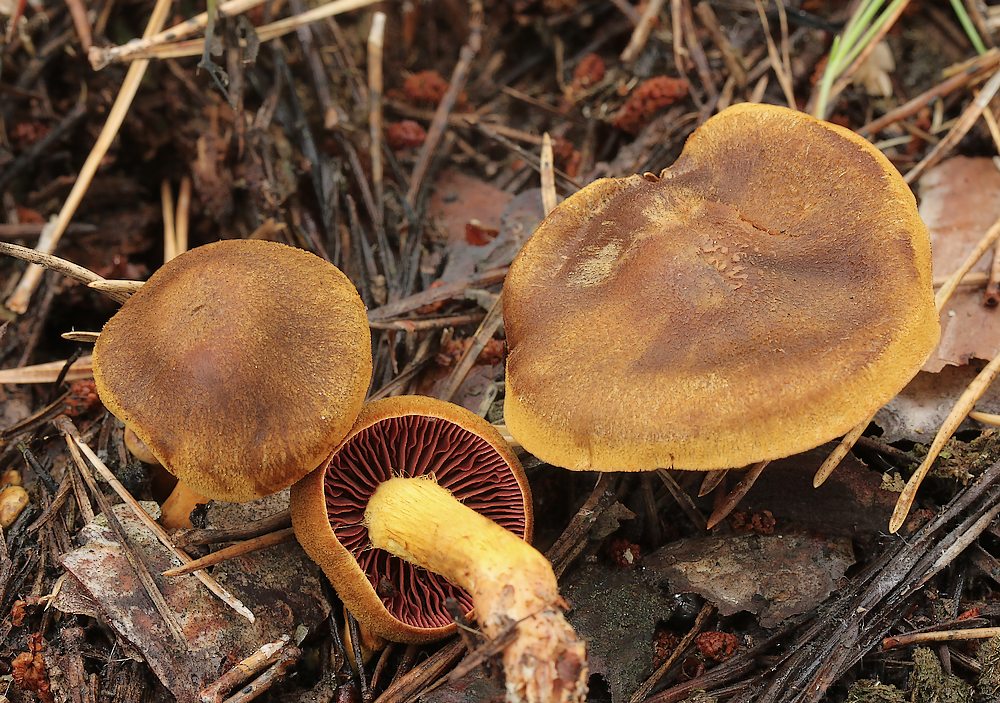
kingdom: Fungi
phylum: Basidiomycota
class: Agaricomycetes
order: Agaricales
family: Cortinariaceae
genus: Cortinarius
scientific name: Cortinarius
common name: cinnoberbladet slørhat
